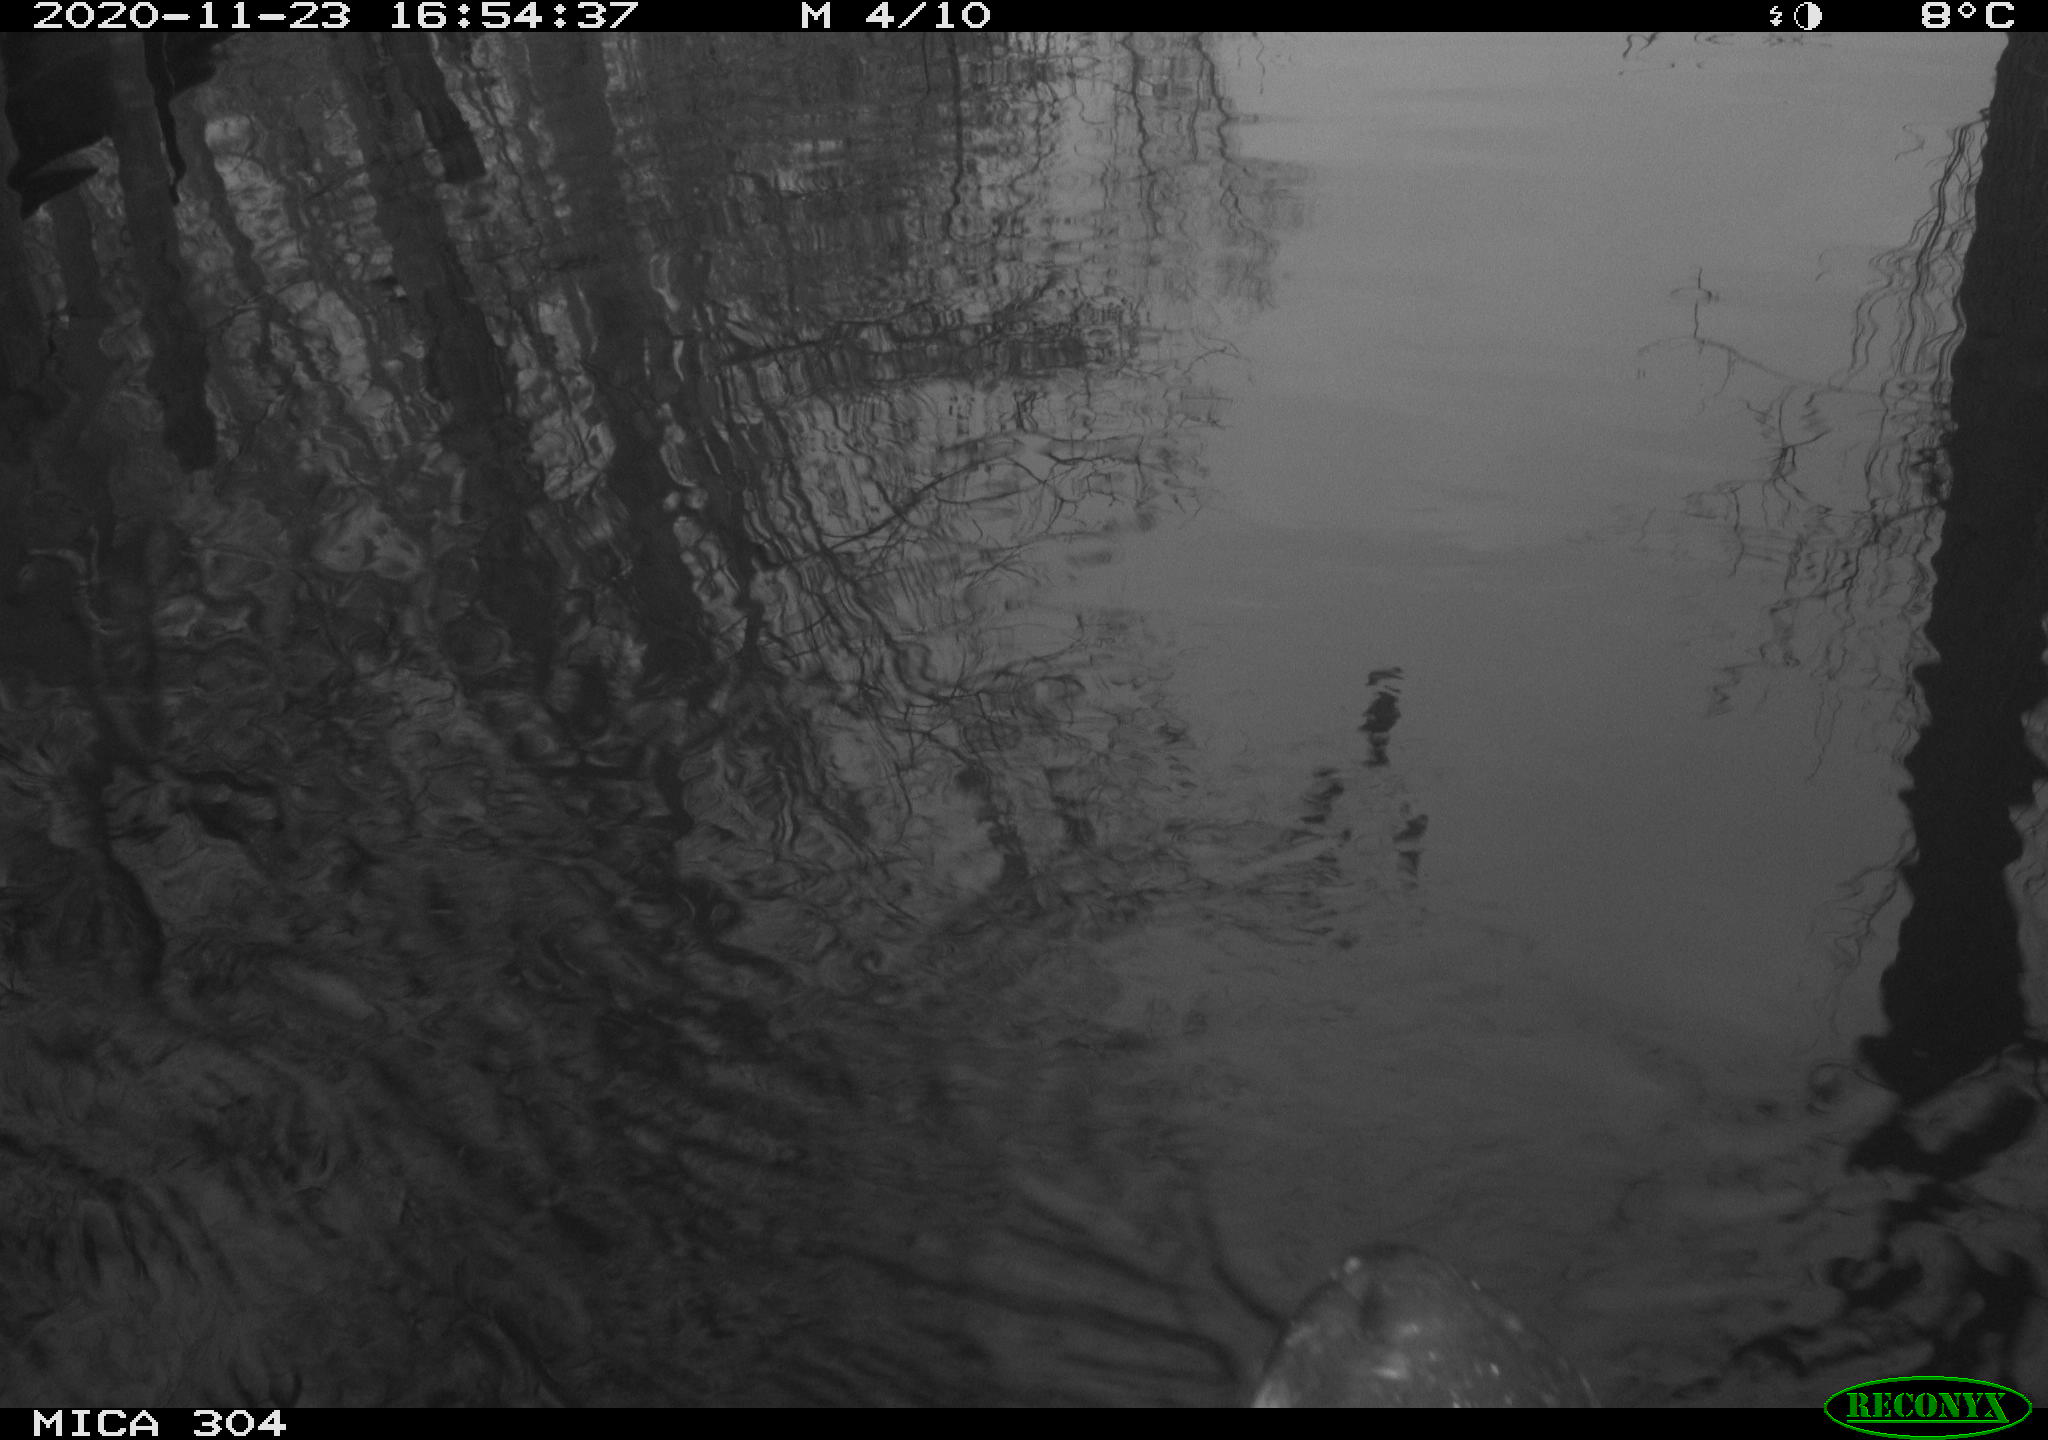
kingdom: Animalia
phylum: Chordata
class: Aves
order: Gruiformes
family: Rallidae
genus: Fulica
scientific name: Fulica atra
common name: Eurasian coot
